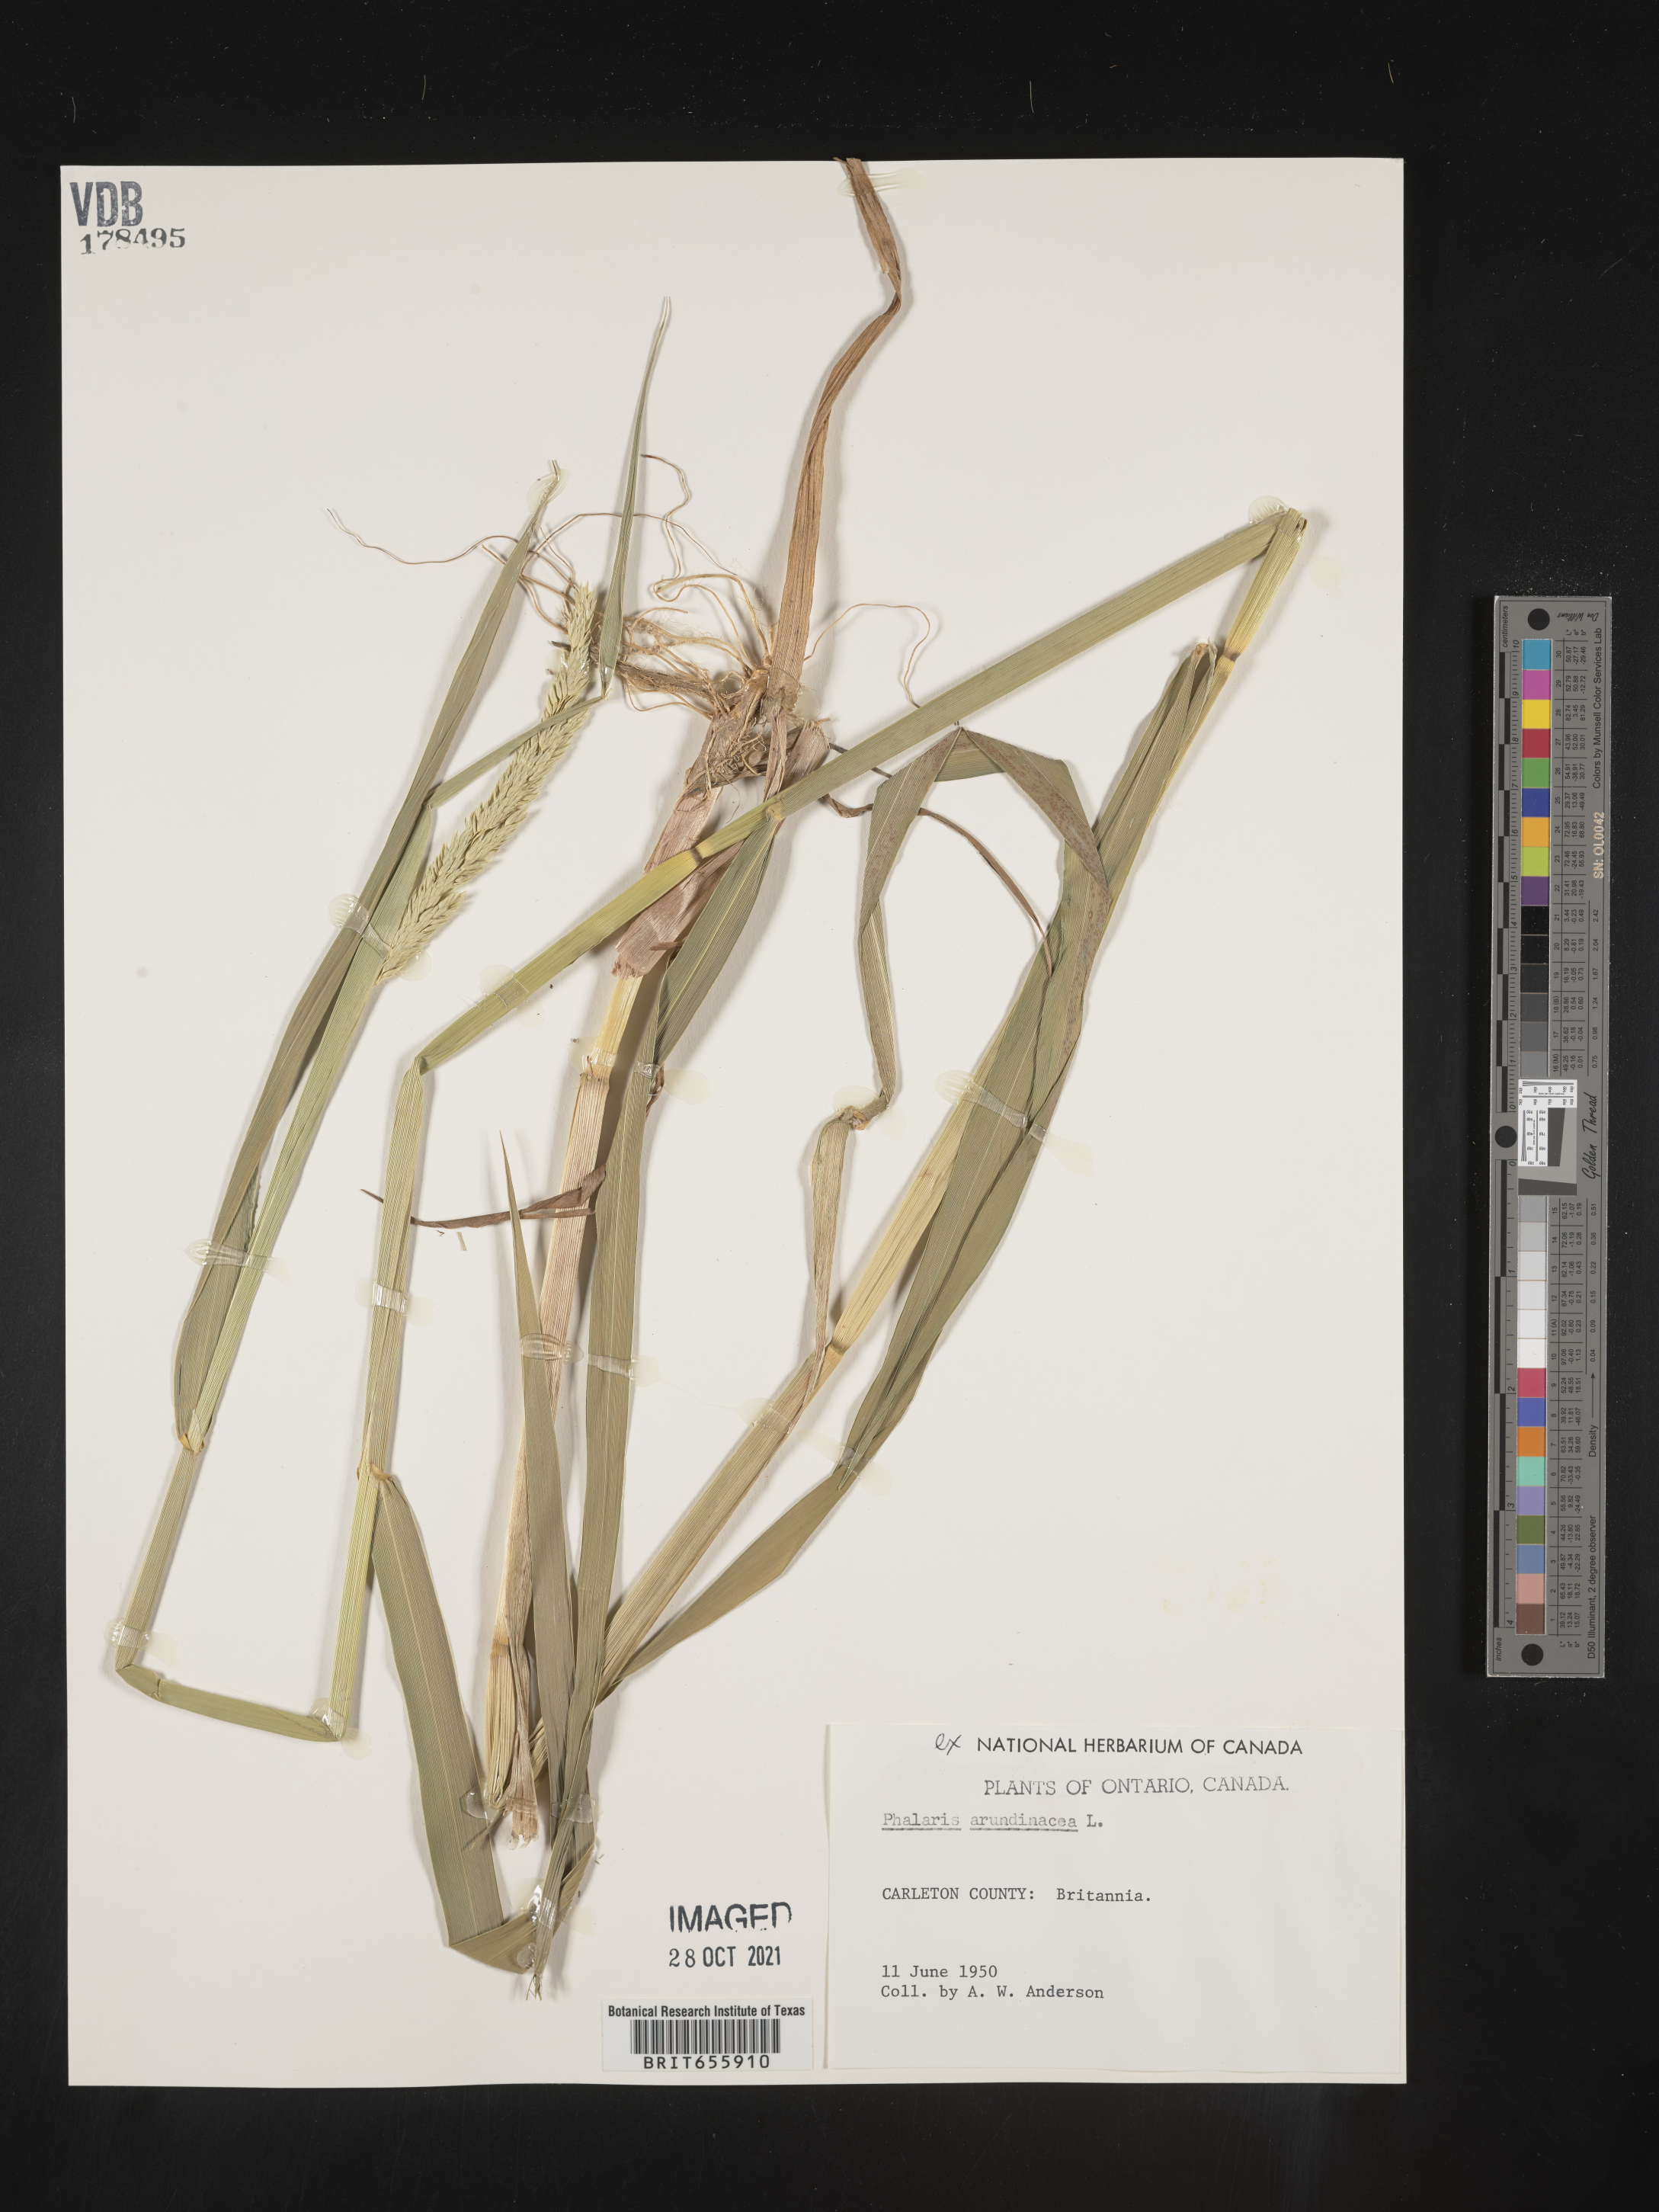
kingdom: Plantae
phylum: Tracheophyta
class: Liliopsida
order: Poales
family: Poaceae
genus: Phalaris
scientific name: Phalaris
